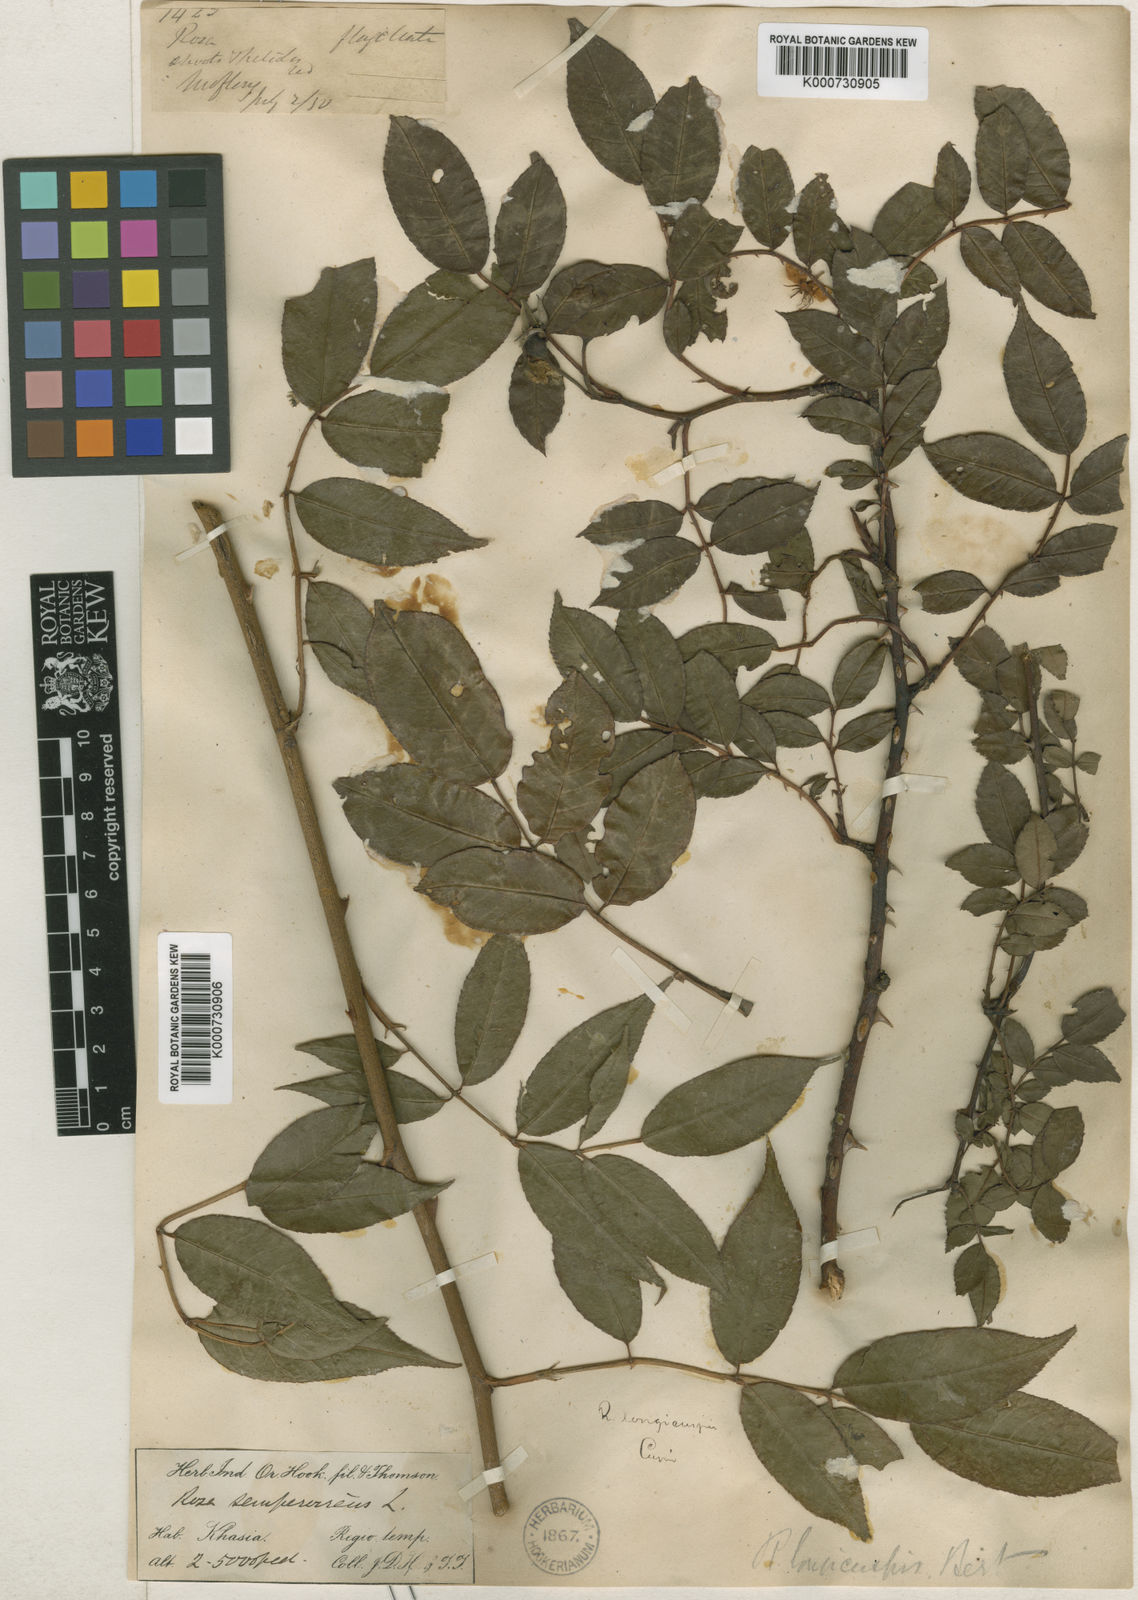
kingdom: Plantae
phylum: Tracheophyta
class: Magnoliopsida
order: Rosales
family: Rosaceae
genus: Rosa
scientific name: Rosa longicuspis
